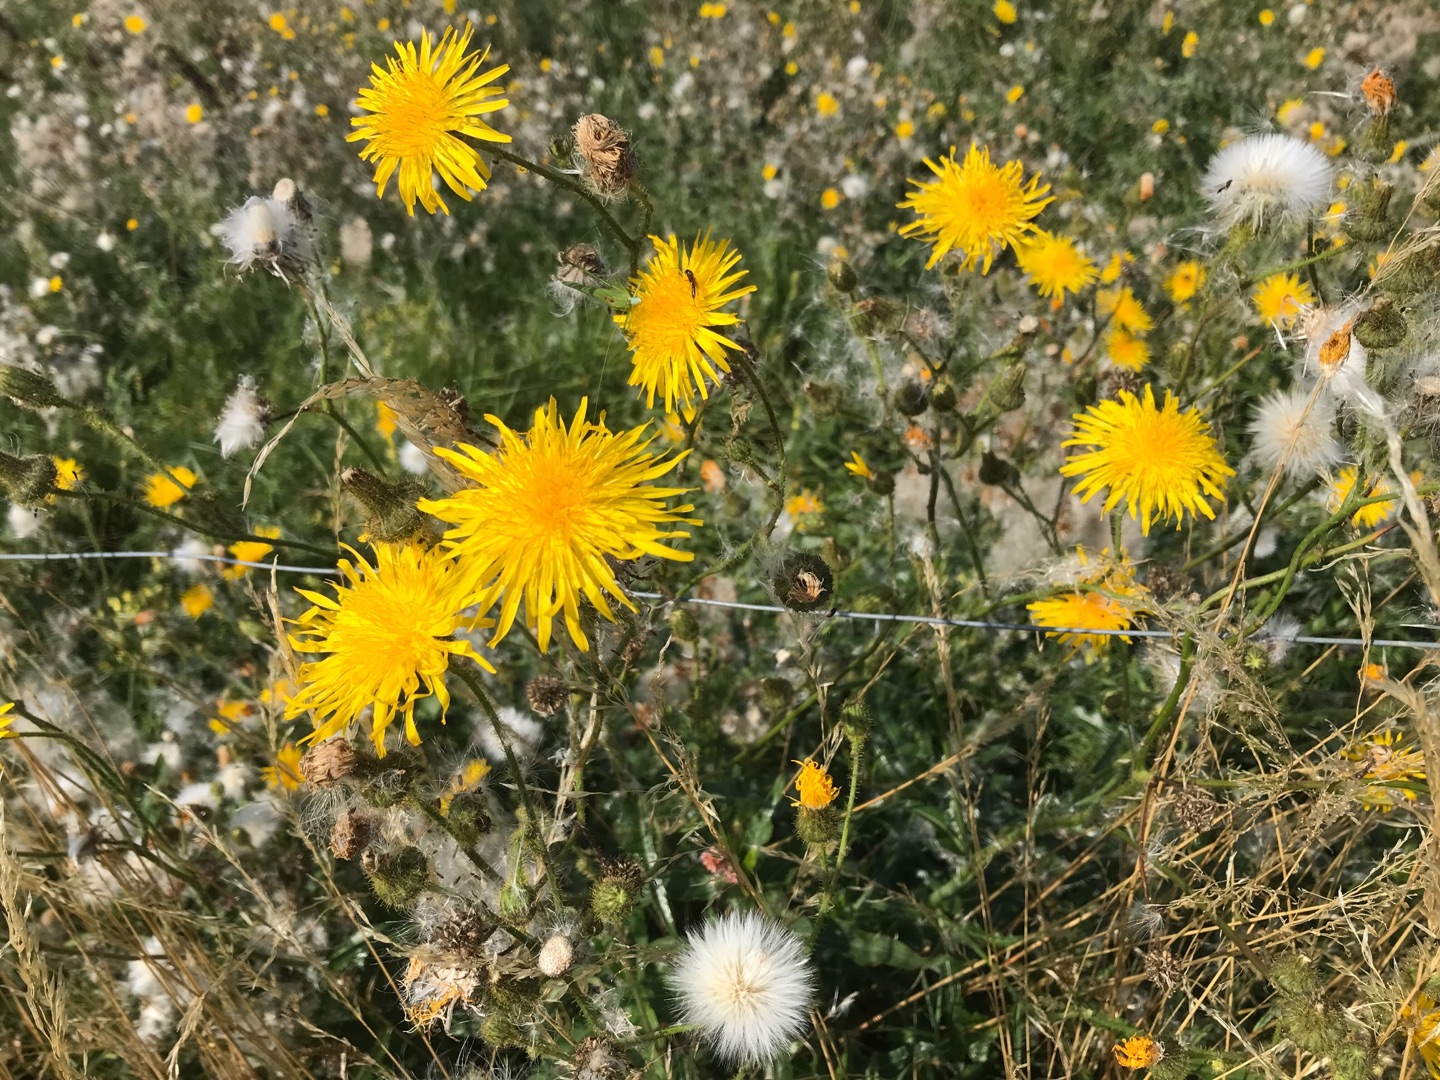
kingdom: Plantae
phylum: Tracheophyta
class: Magnoliopsida
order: Asterales
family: Asteraceae
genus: Sonchus
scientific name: Sonchus arvensis
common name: Ager-svinemælk
